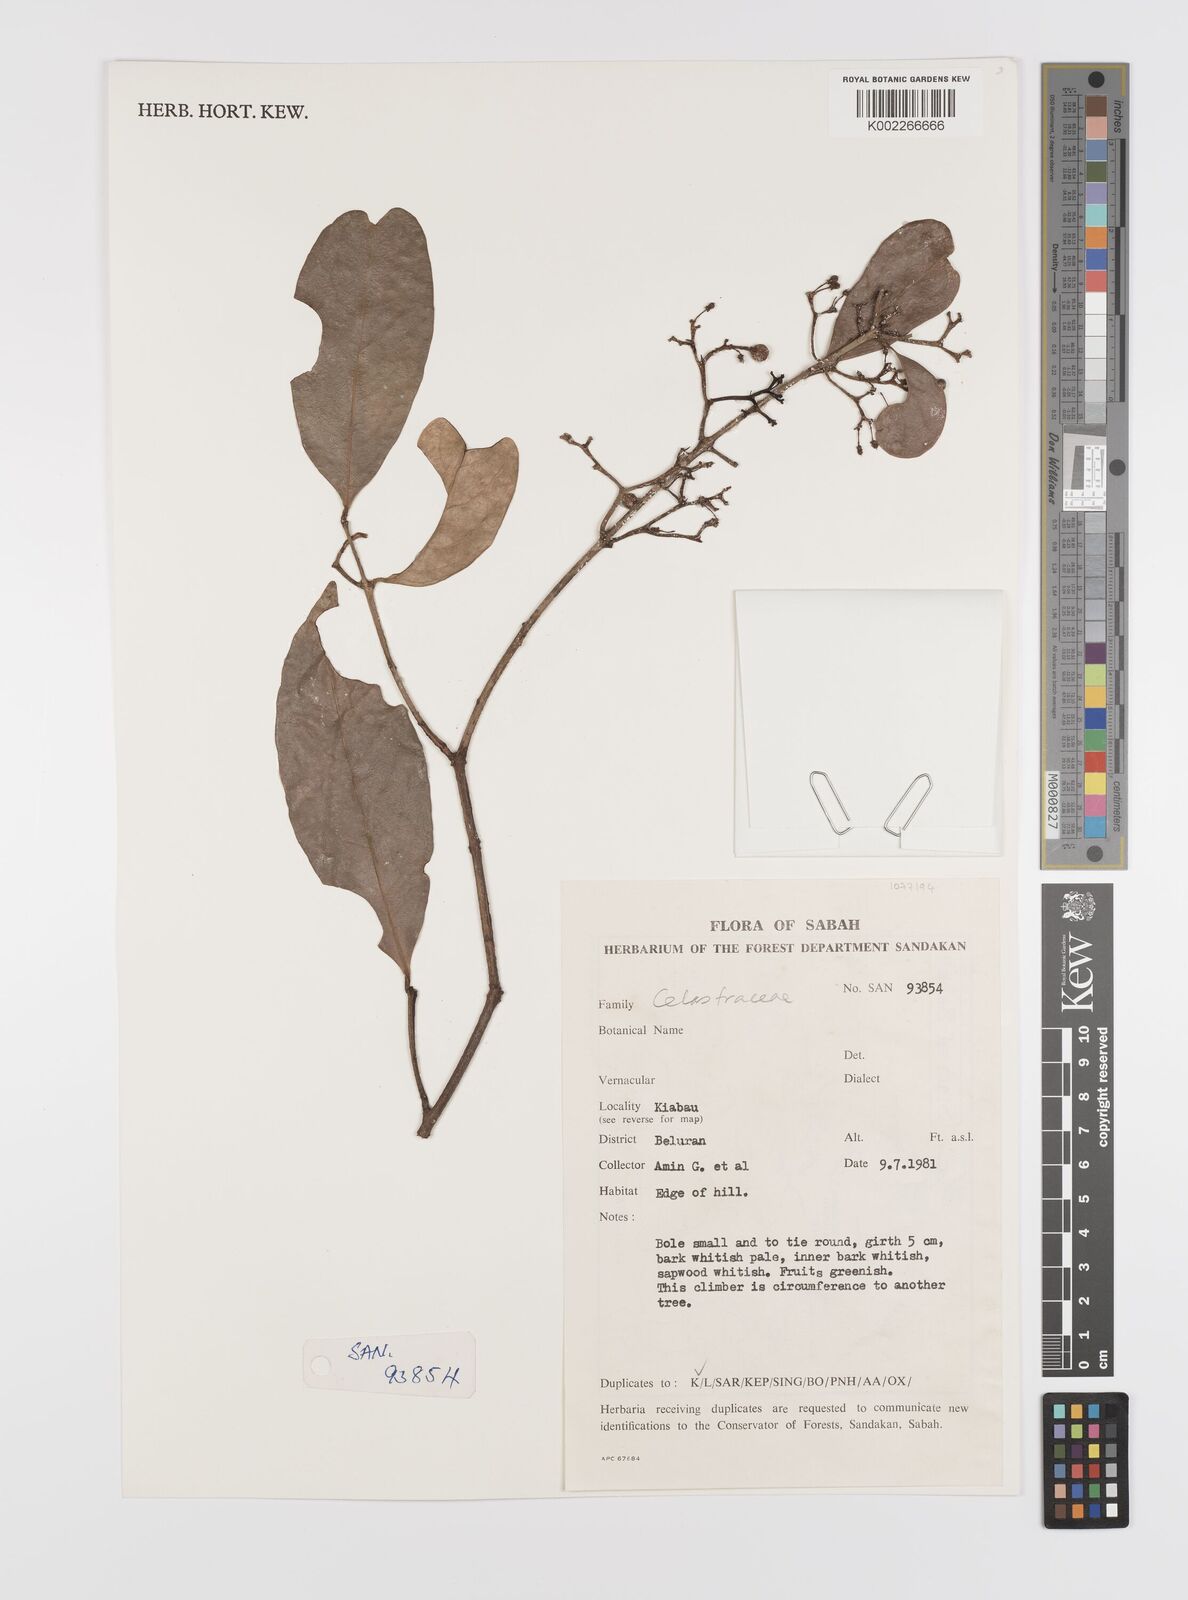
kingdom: Plantae
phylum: Tracheophyta
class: Magnoliopsida
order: Celastrales
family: Celastraceae
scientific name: Celastraceae
